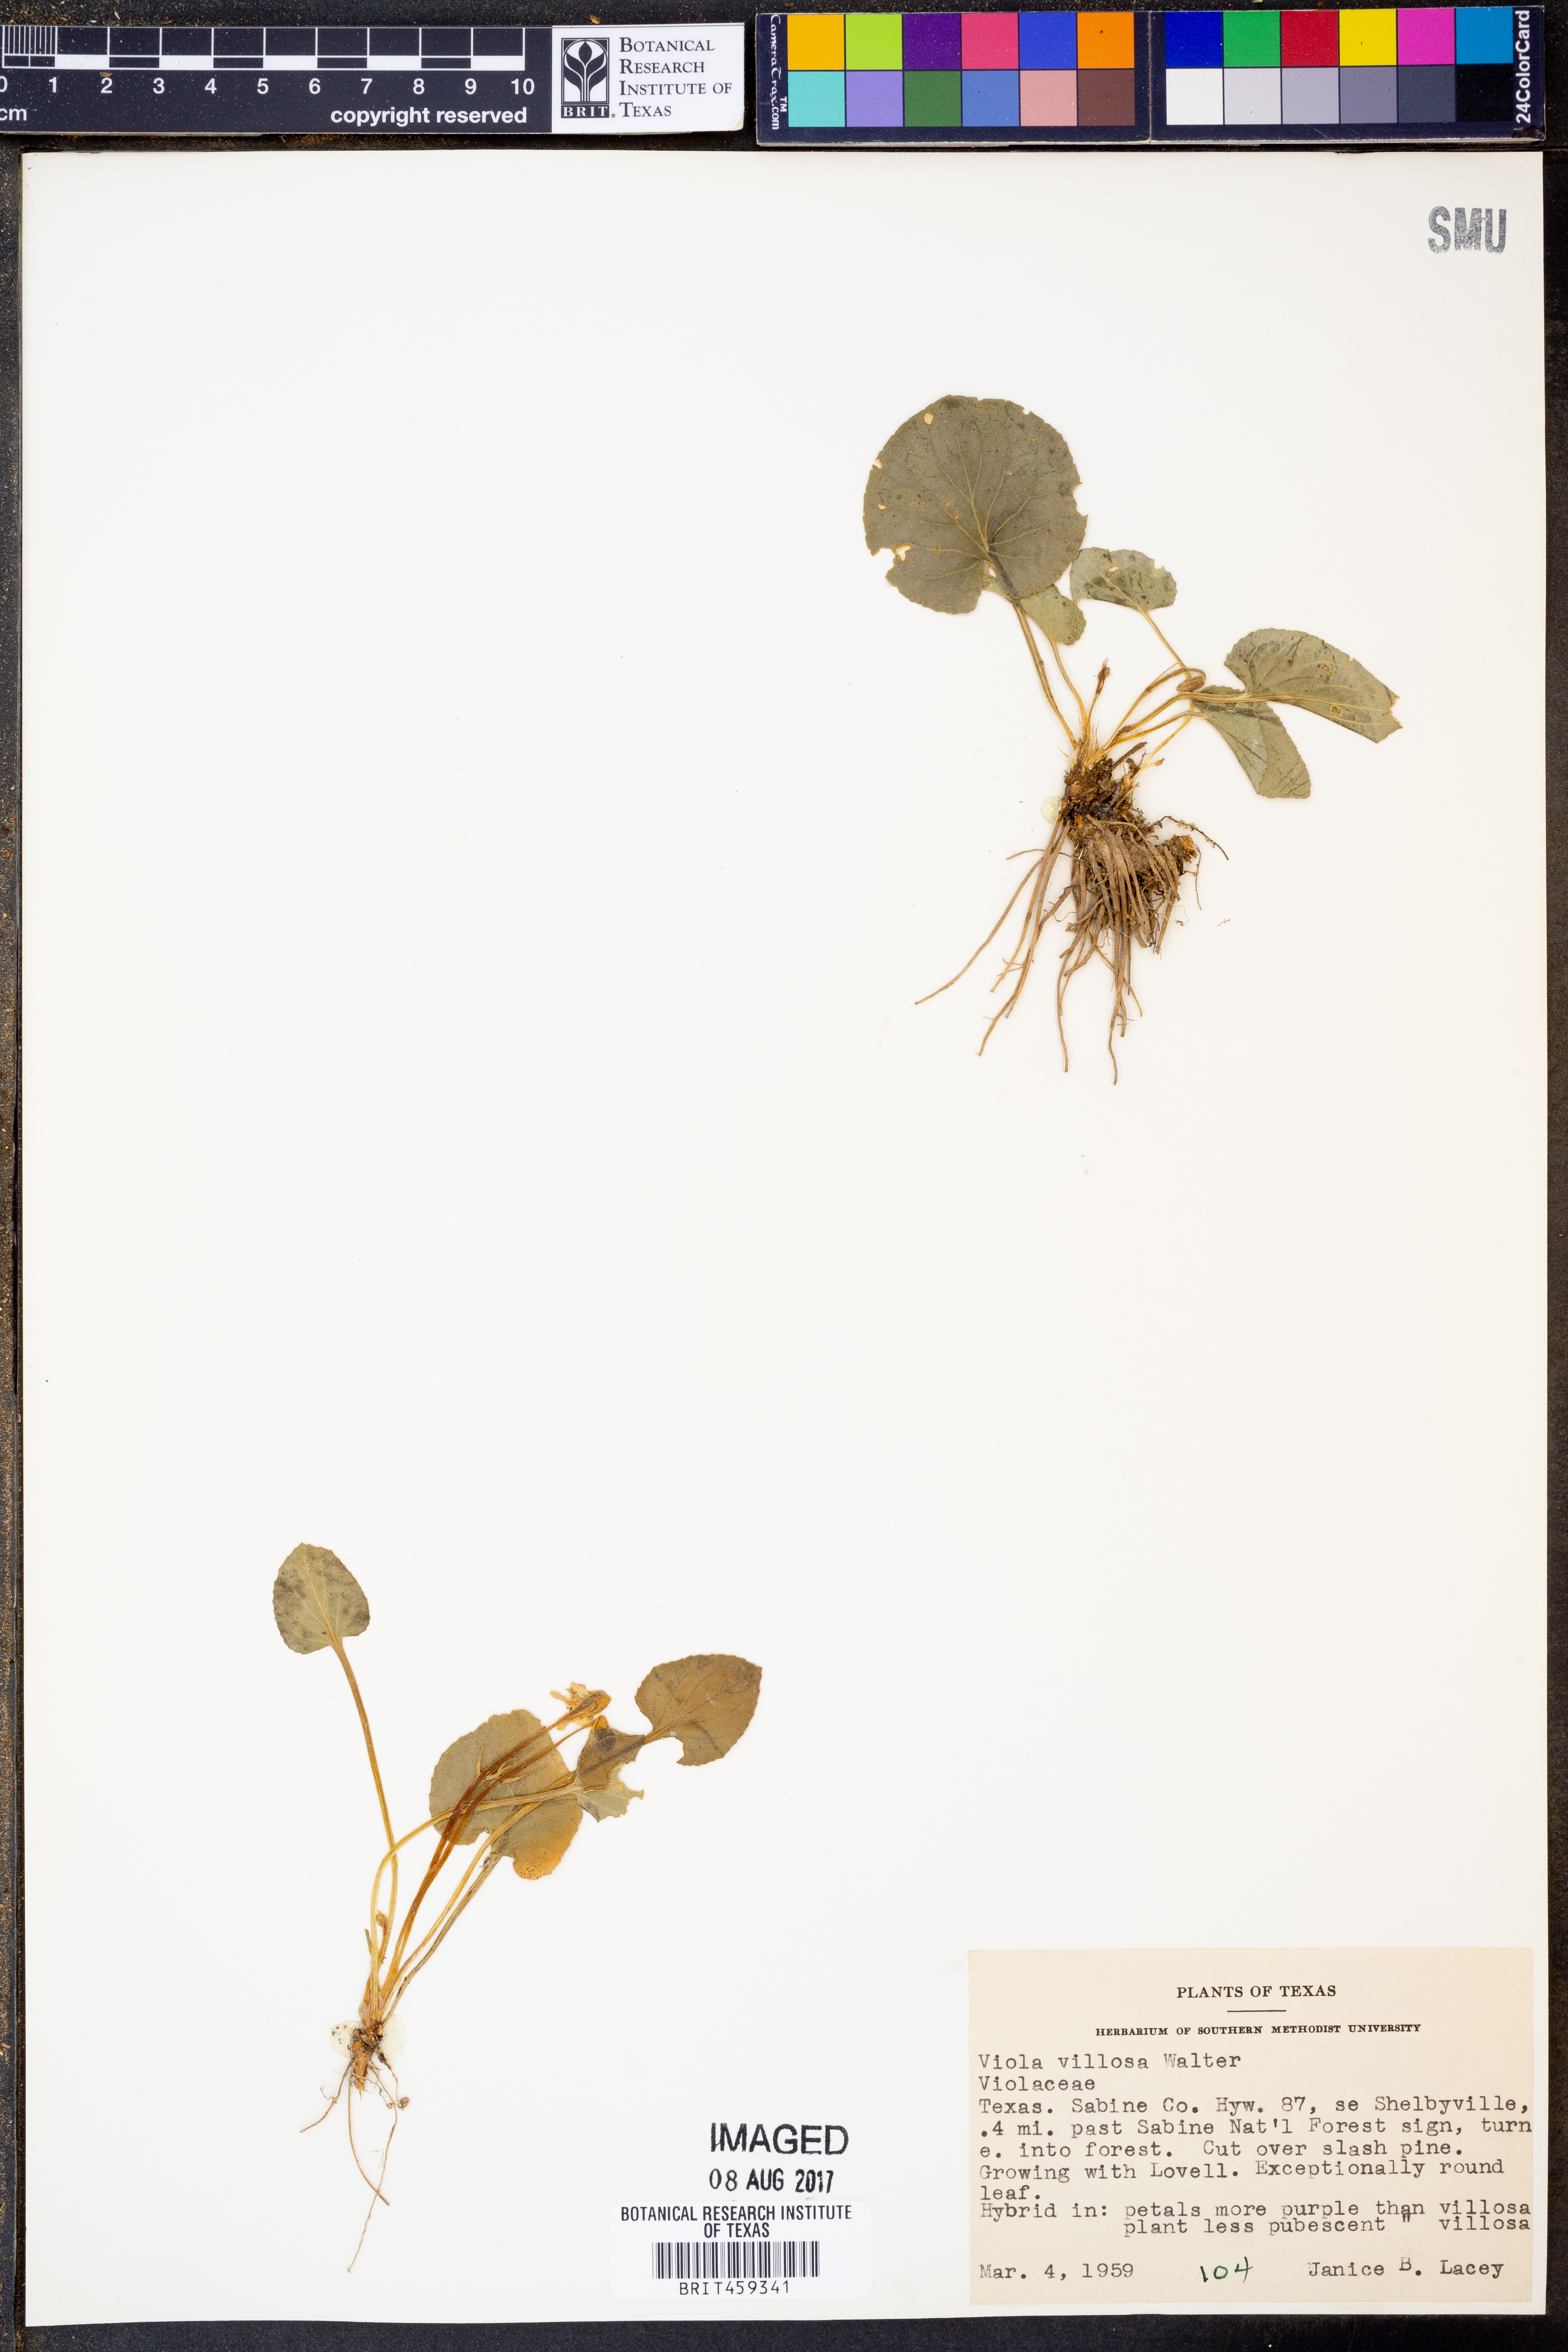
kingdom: Plantae
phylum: Tracheophyta
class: Magnoliopsida
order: Malpighiales
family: Violaceae
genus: Viola
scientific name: Viola villosa
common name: Carolina violet
